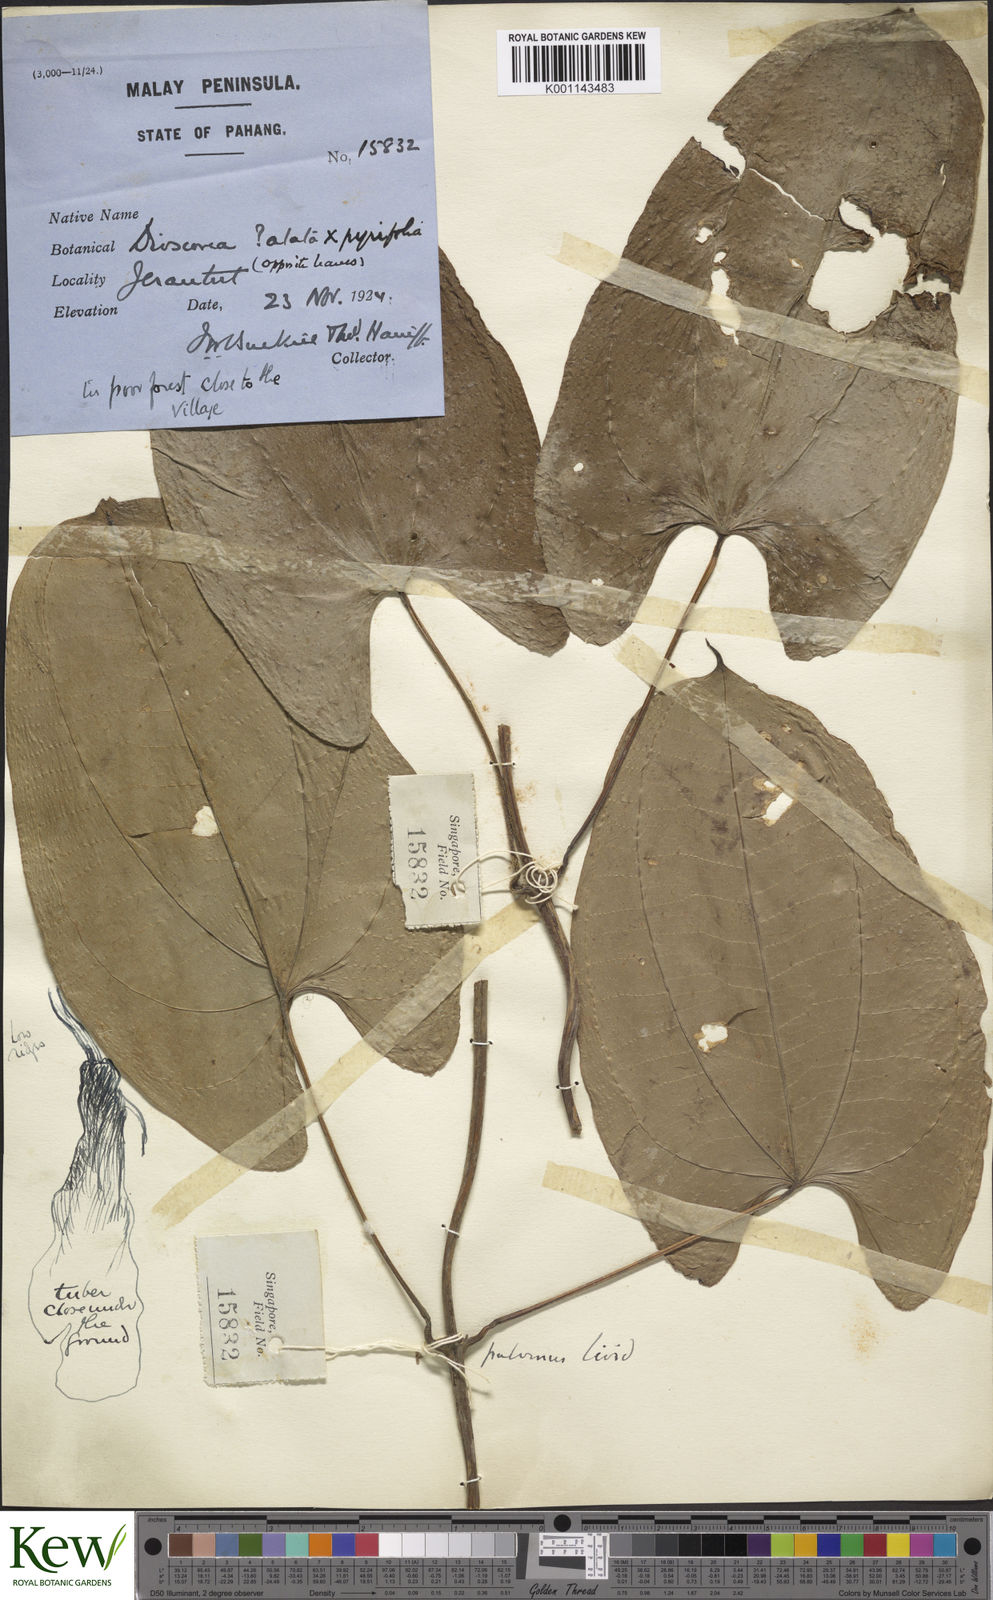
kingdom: Plantae
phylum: Tracheophyta
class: Liliopsida
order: Dioscoreales
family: Dioscoreaceae
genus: Dioscorea
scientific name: Dioscorea
